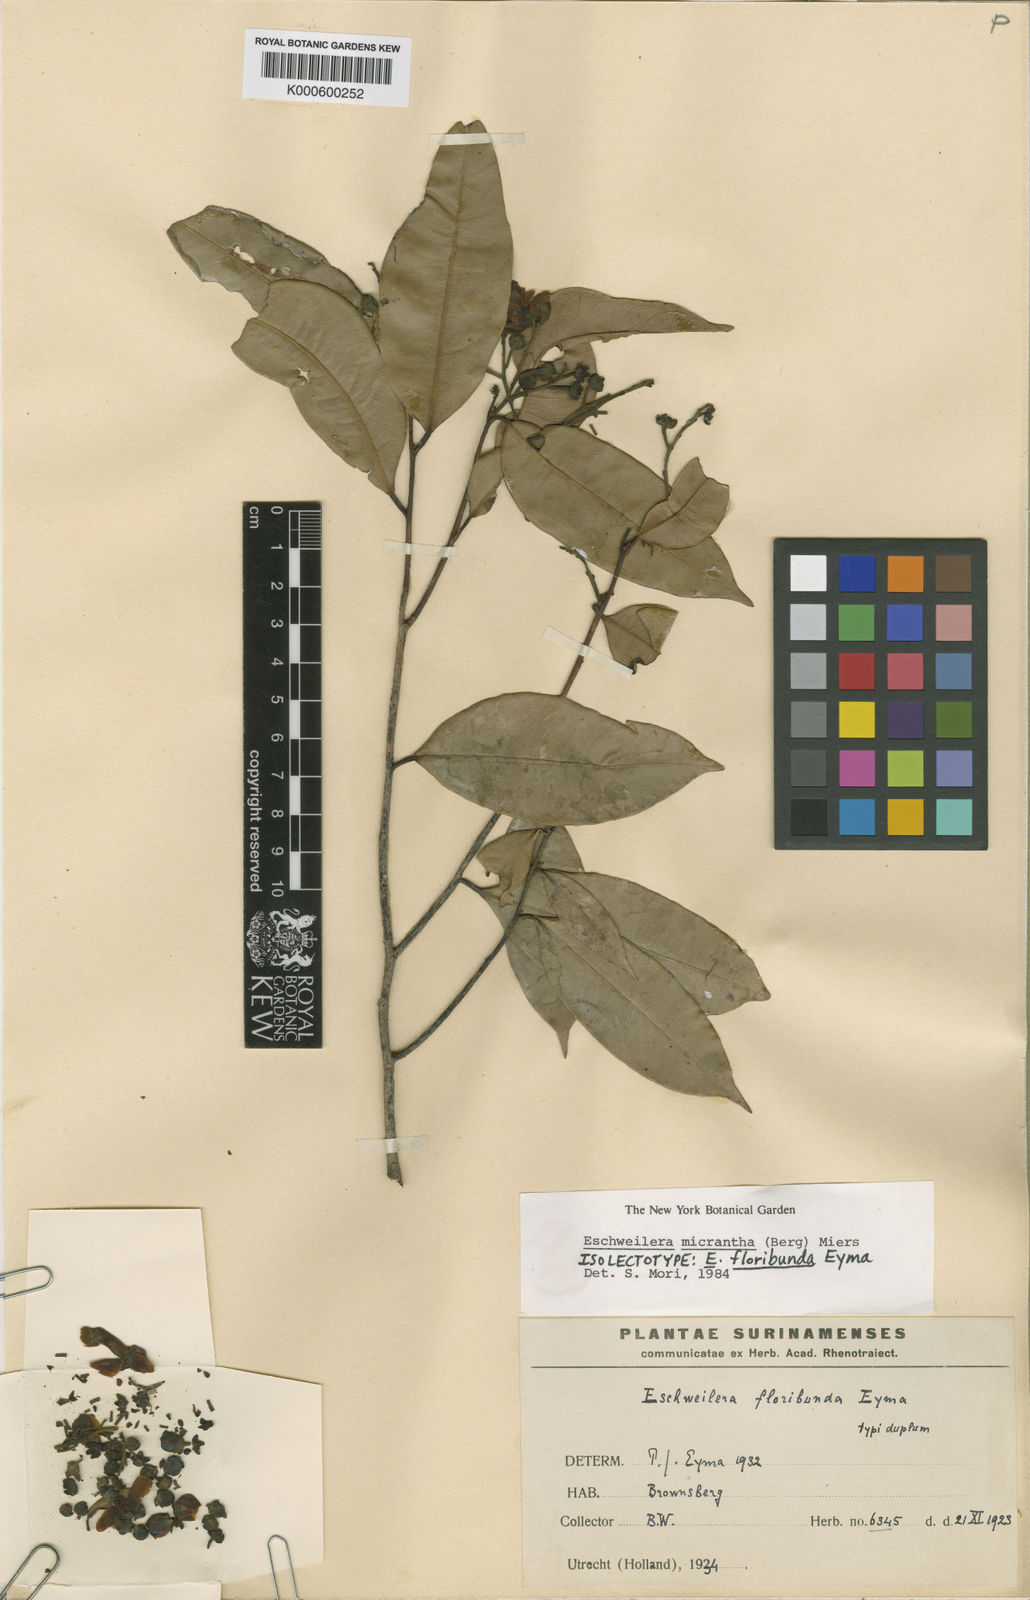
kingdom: Plantae
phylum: Tracheophyta
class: Magnoliopsida
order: Ericales
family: Lecythidaceae
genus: Eschweilera
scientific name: Eschweilera micrantha
